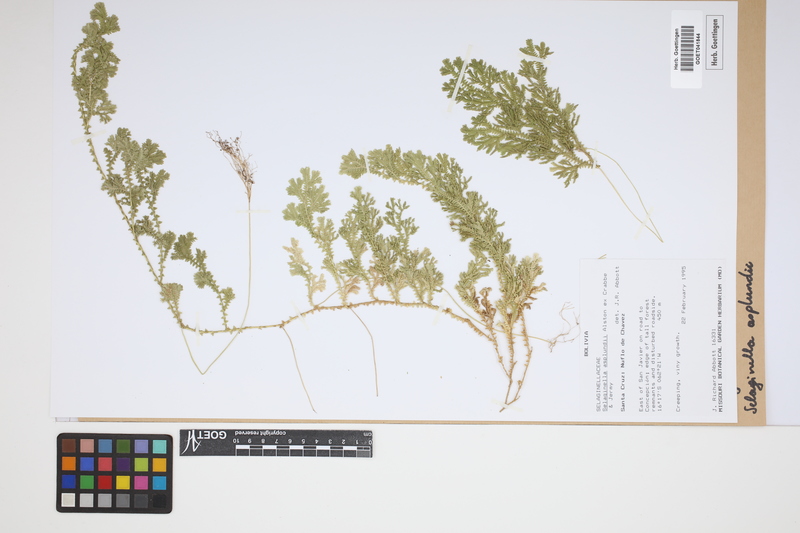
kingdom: Plantae
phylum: Tracheophyta
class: Lycopodiopsida
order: Selaginellales
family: Selaginellaceae
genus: Selaginella
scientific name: Selaginella asplundii
